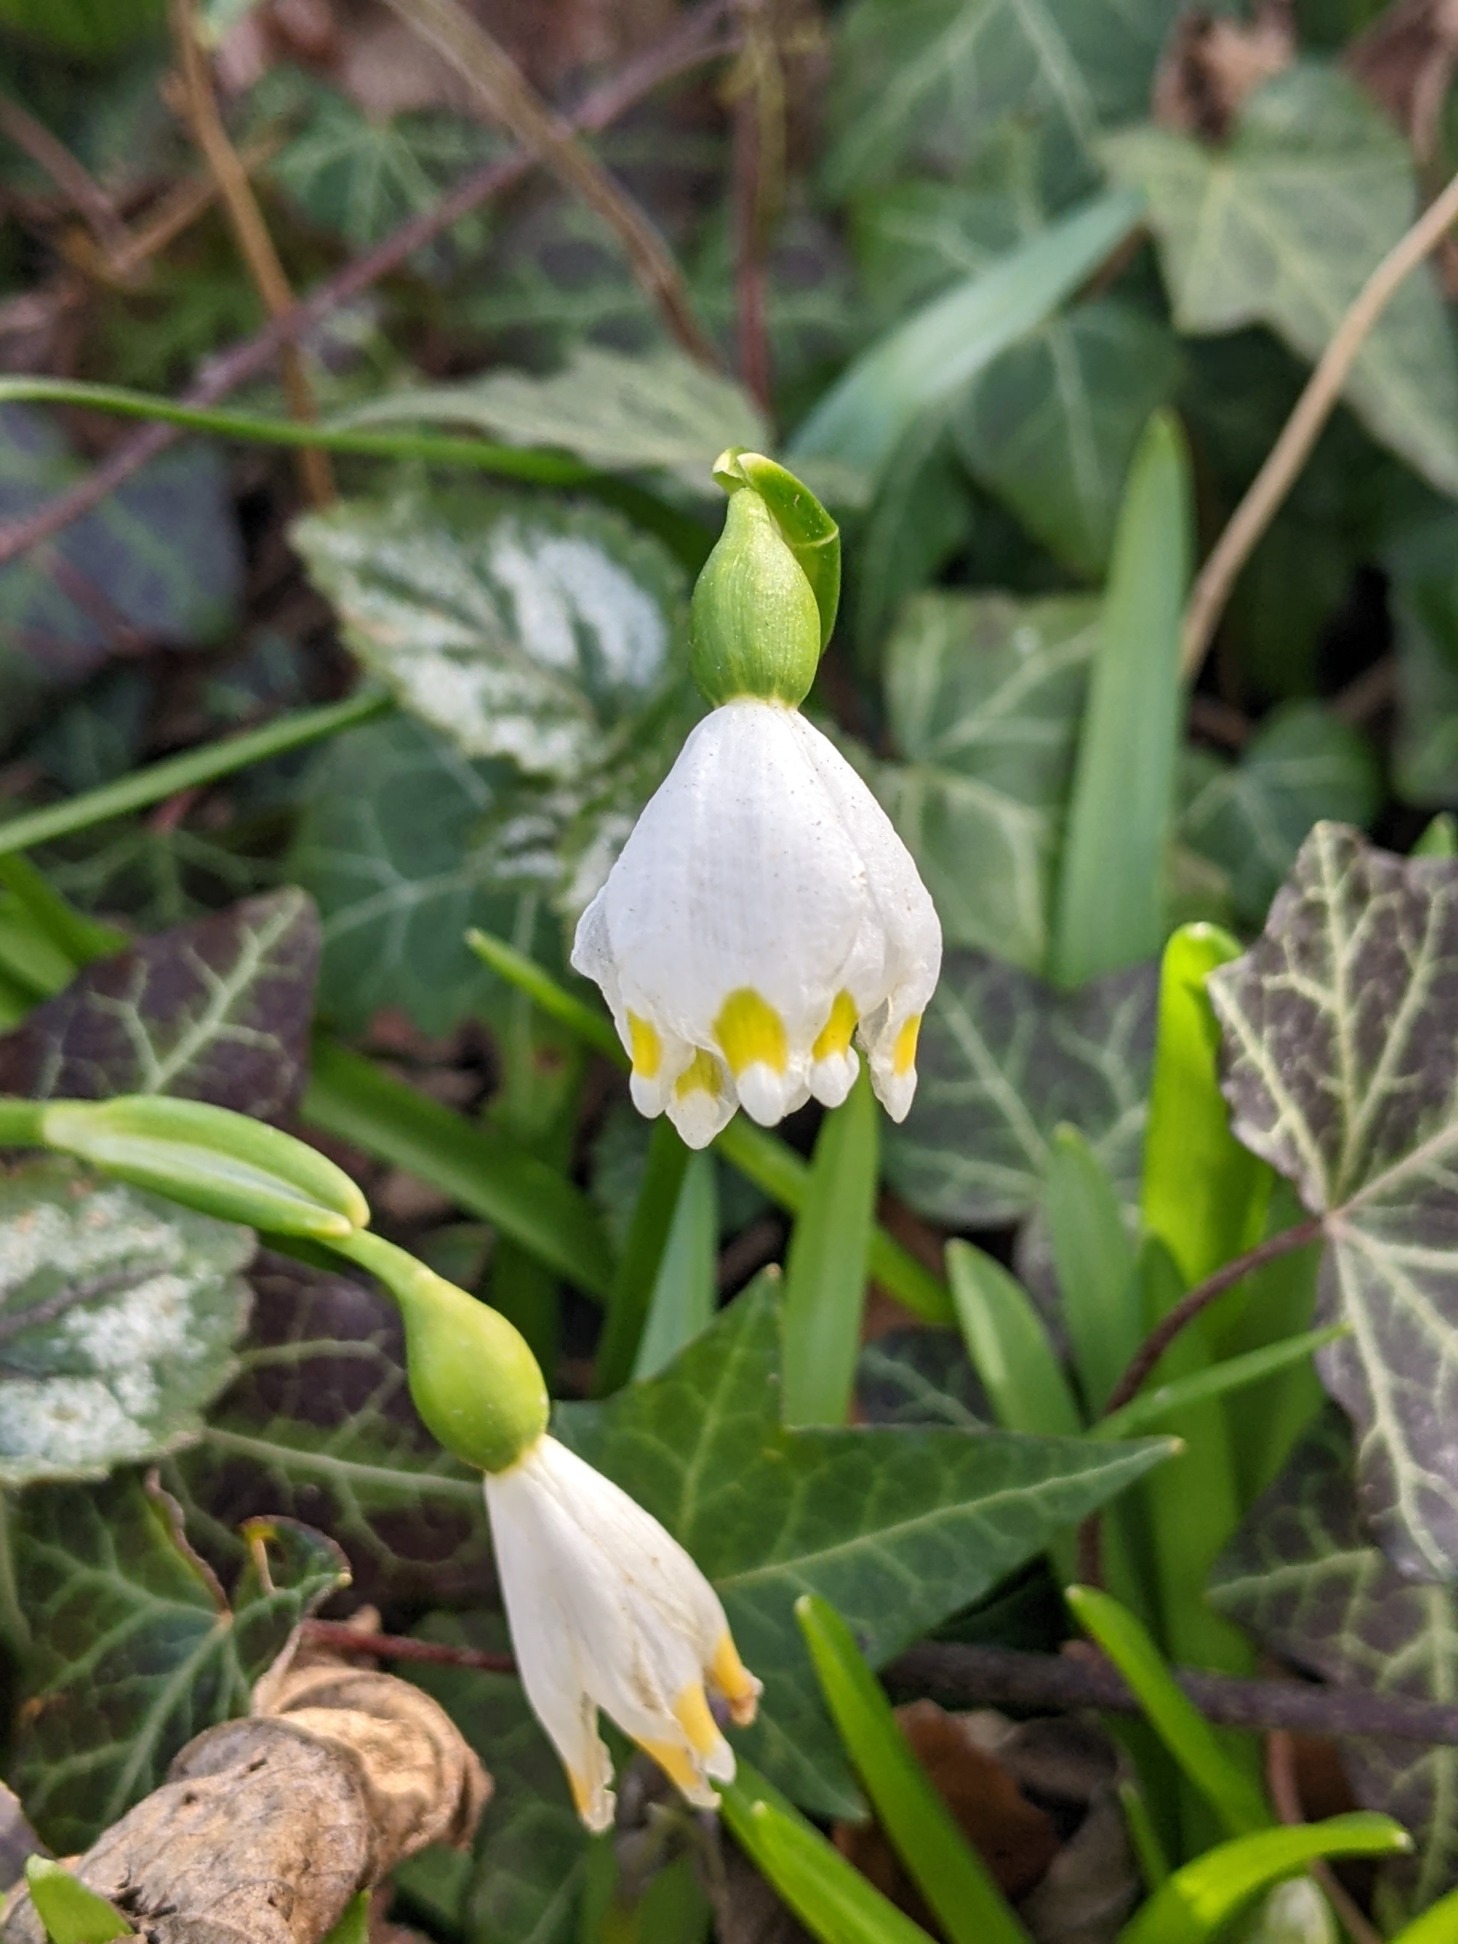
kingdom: Plantae
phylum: Tracheophyta
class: Liliopsida
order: Asparagales
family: Amaryllidaceae
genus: Leucojum
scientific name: Leucojum vernum
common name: Dorthealilje
